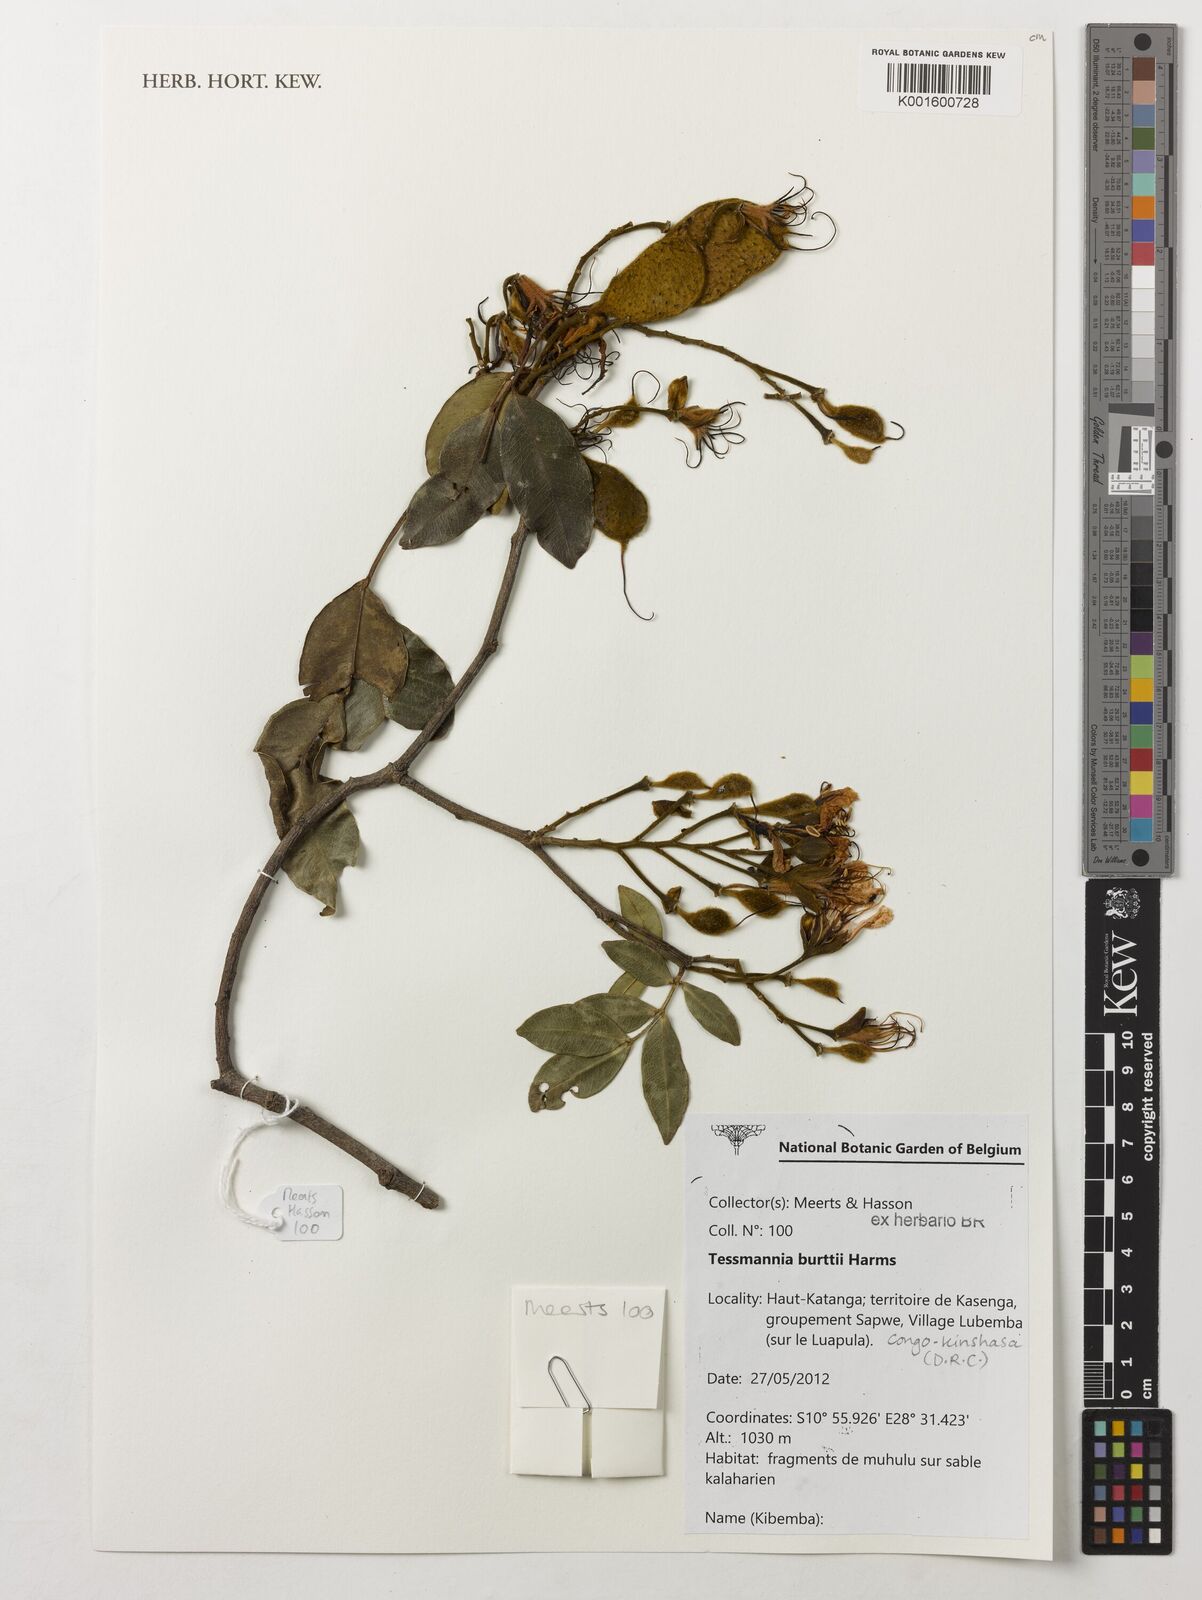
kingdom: Plantae
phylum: Tracheophyta
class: Magnoliopsida
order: Fabales
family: Fabaceae
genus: Tessmannia
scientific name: Tessmannia burttii
